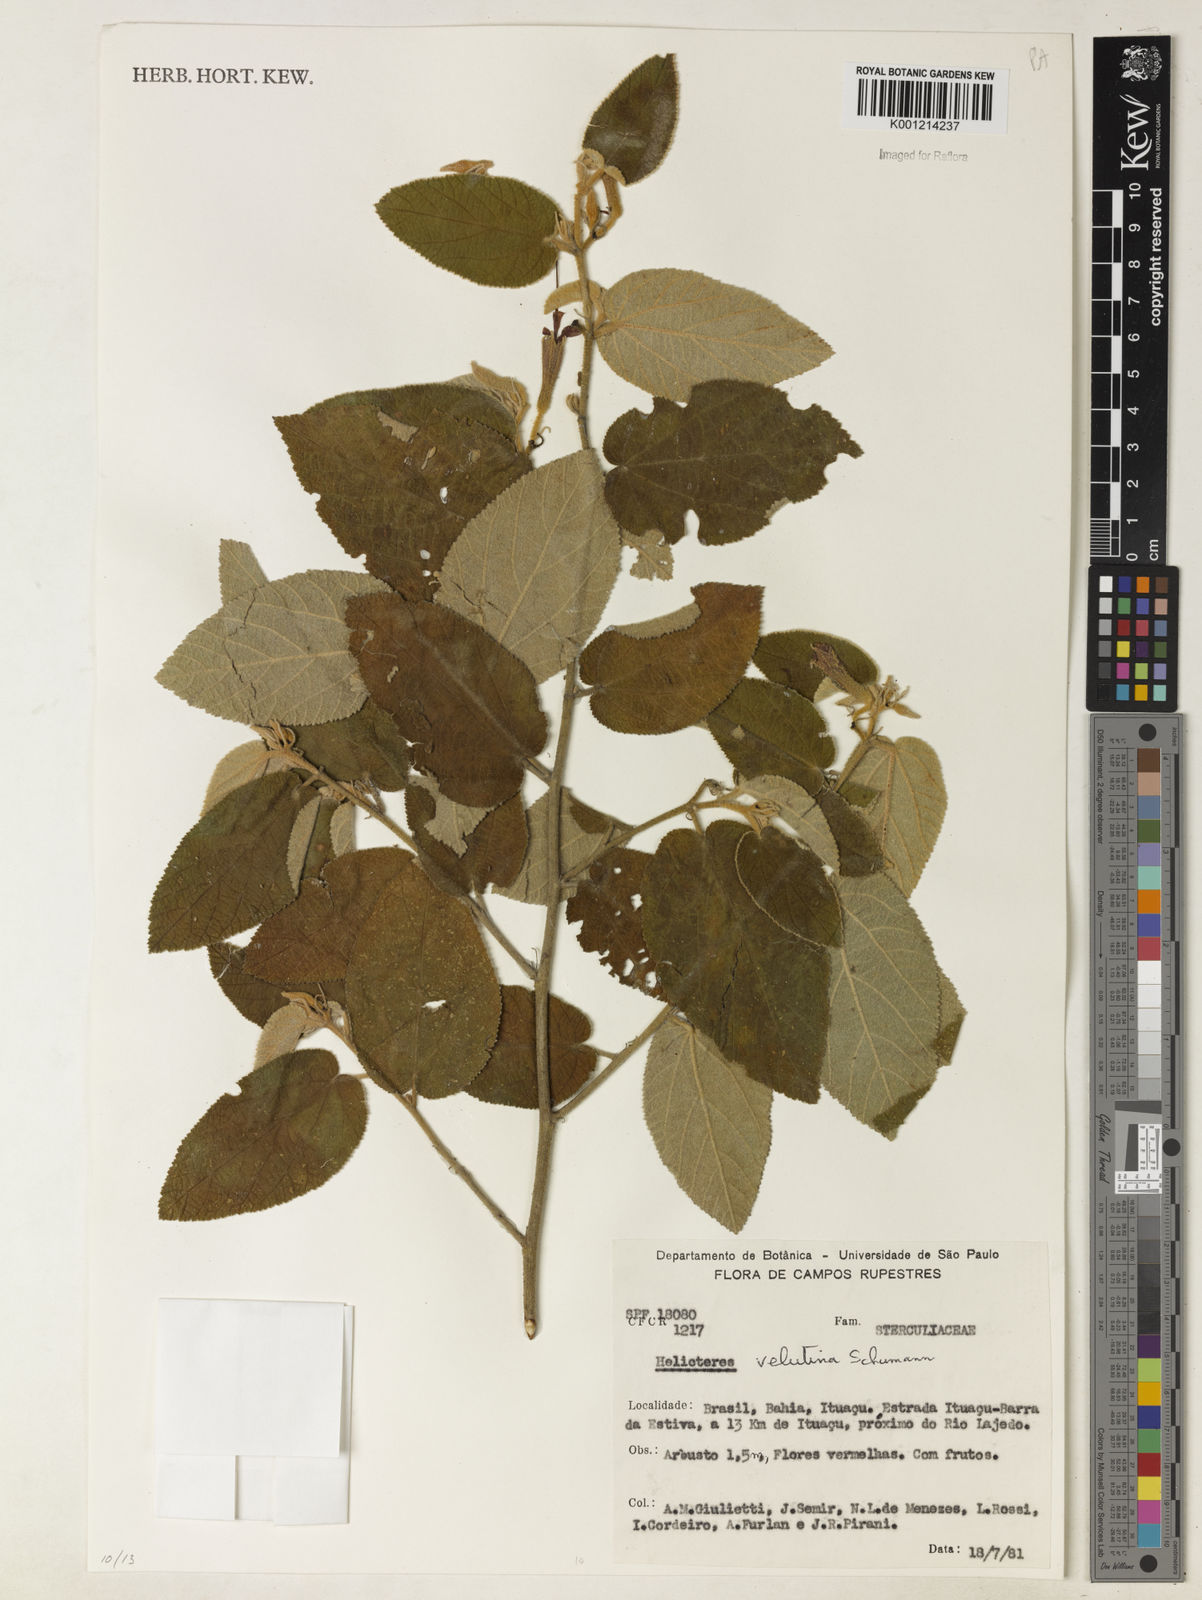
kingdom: Plantae
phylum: Tracheophyta
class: Magnoliopsida
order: Malvales
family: Malvaceae
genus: Helicteres
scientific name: Helicteres velutina
